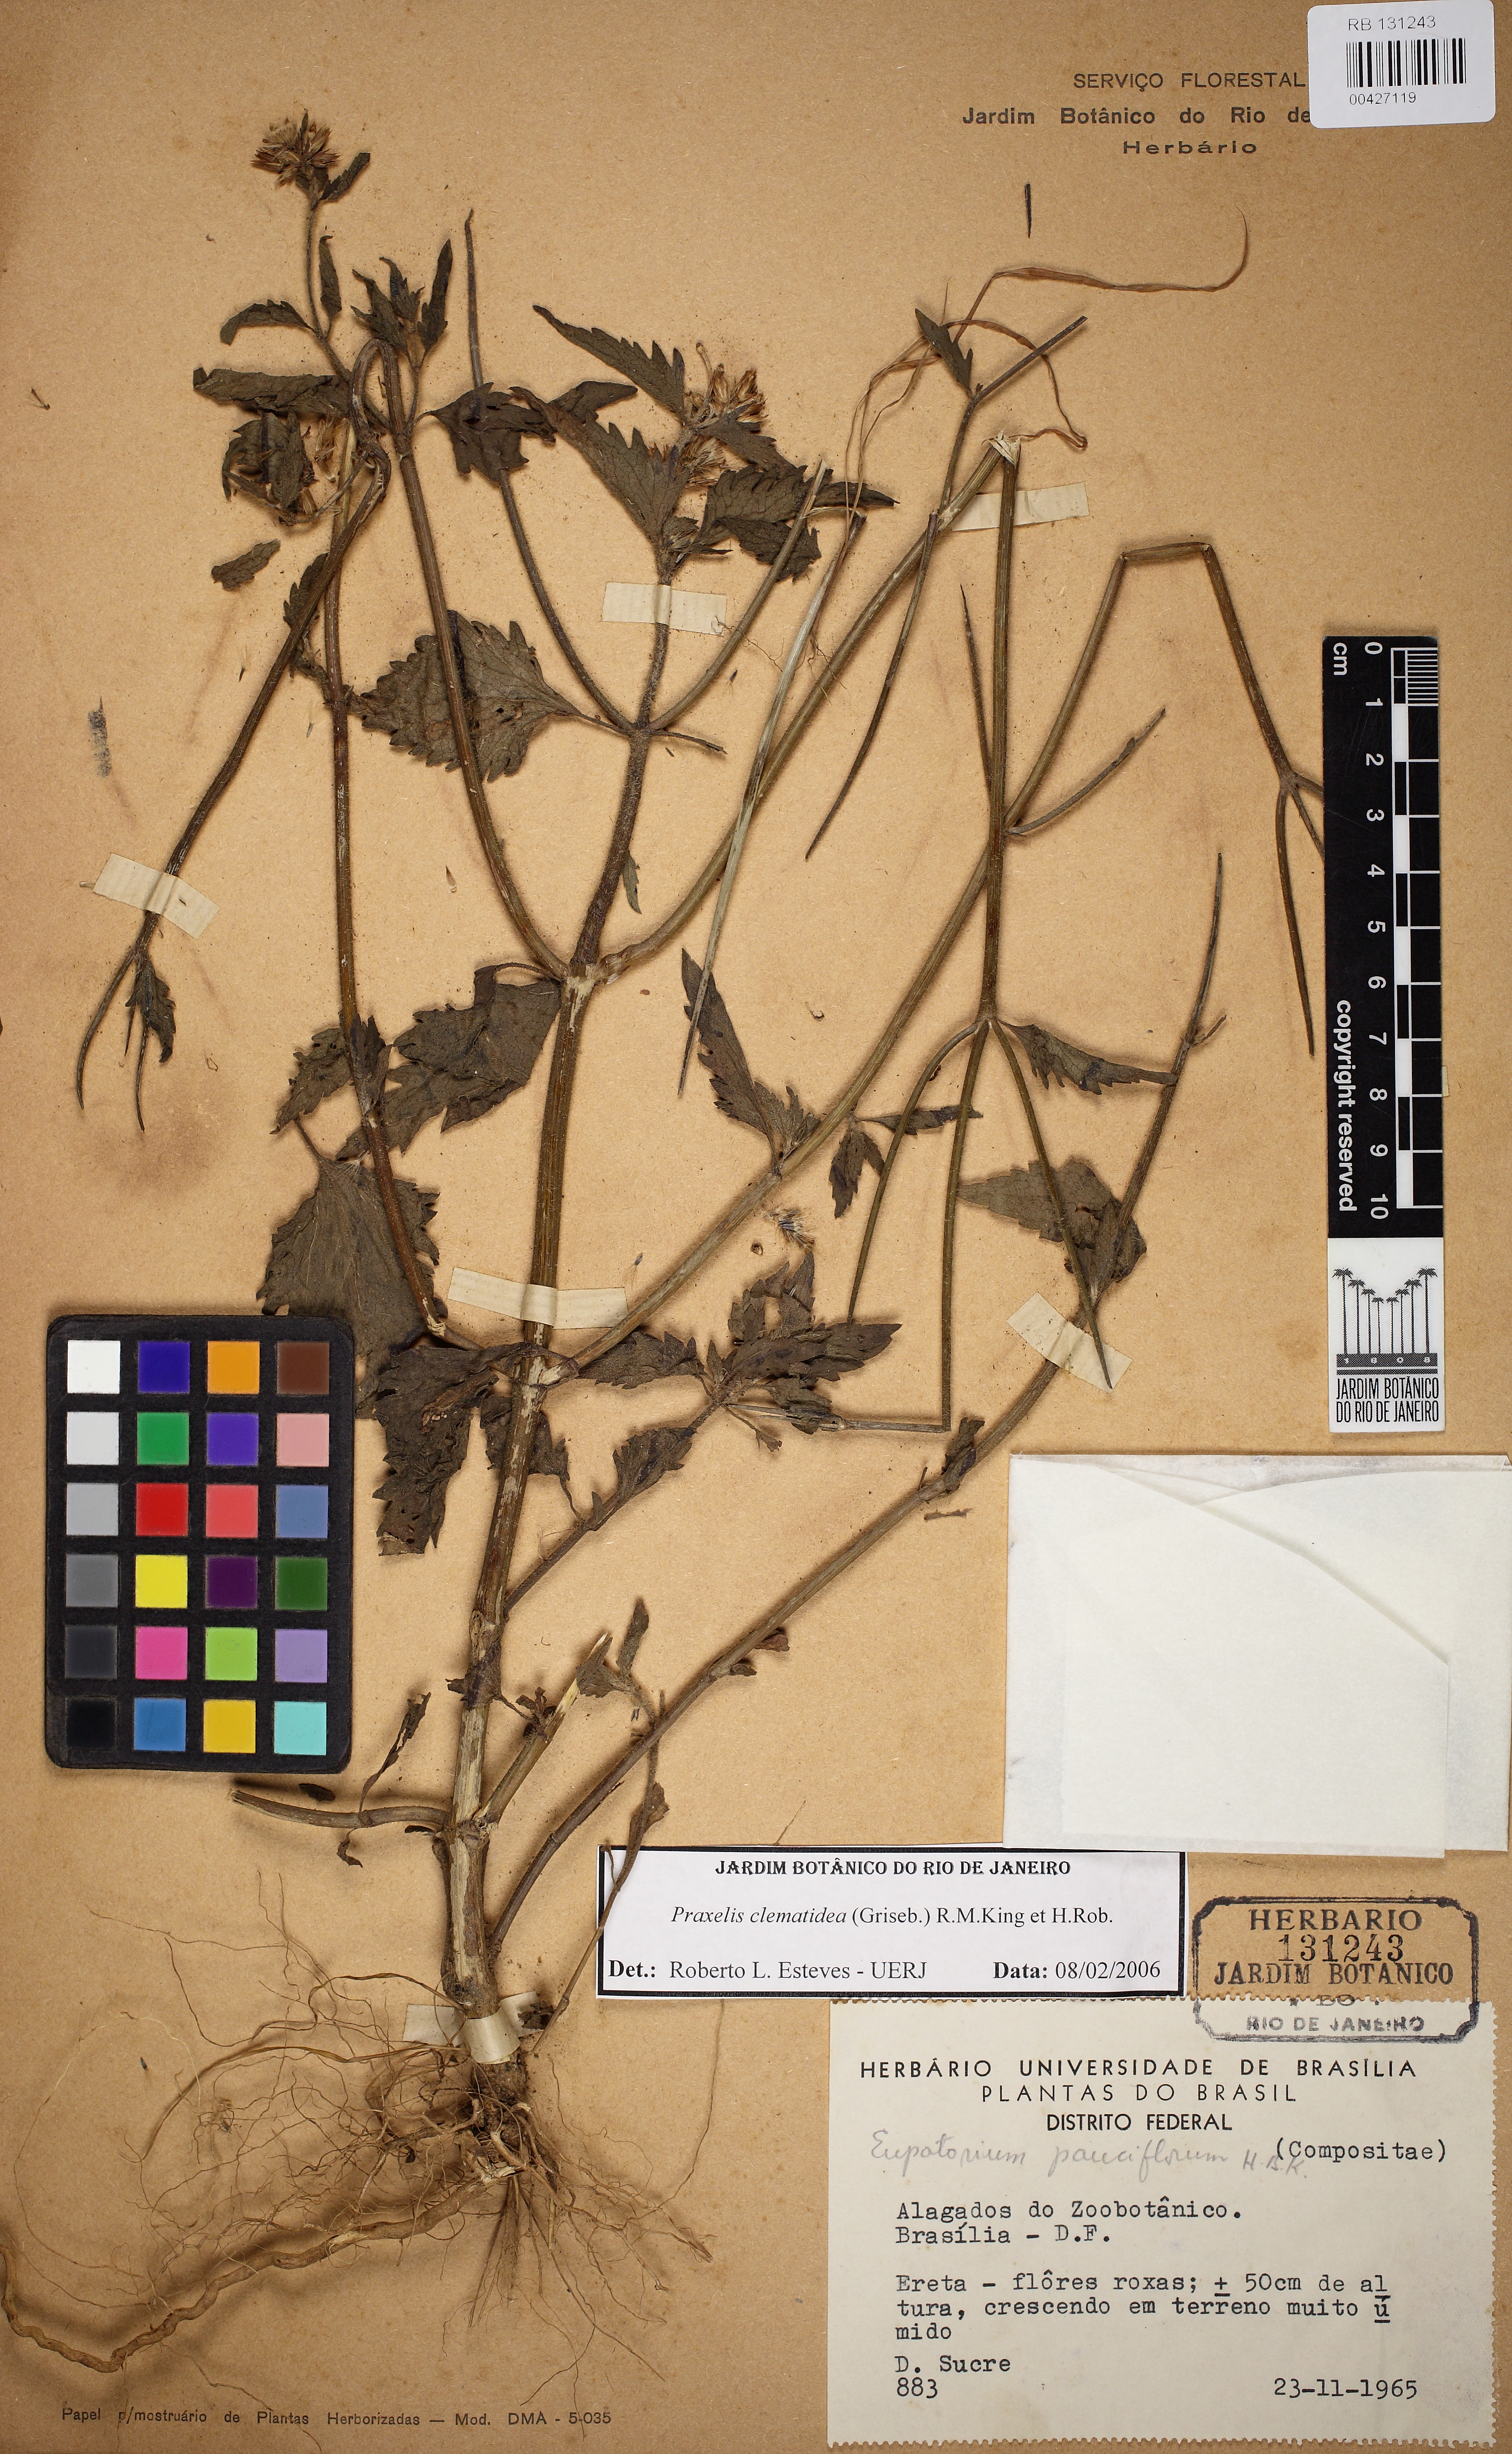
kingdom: Plantae
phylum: Tracheophyta
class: Magnoliopsida
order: Asterales
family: Asteraceae
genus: Praxelis
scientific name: Praxelis clematidea
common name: Praxelis
